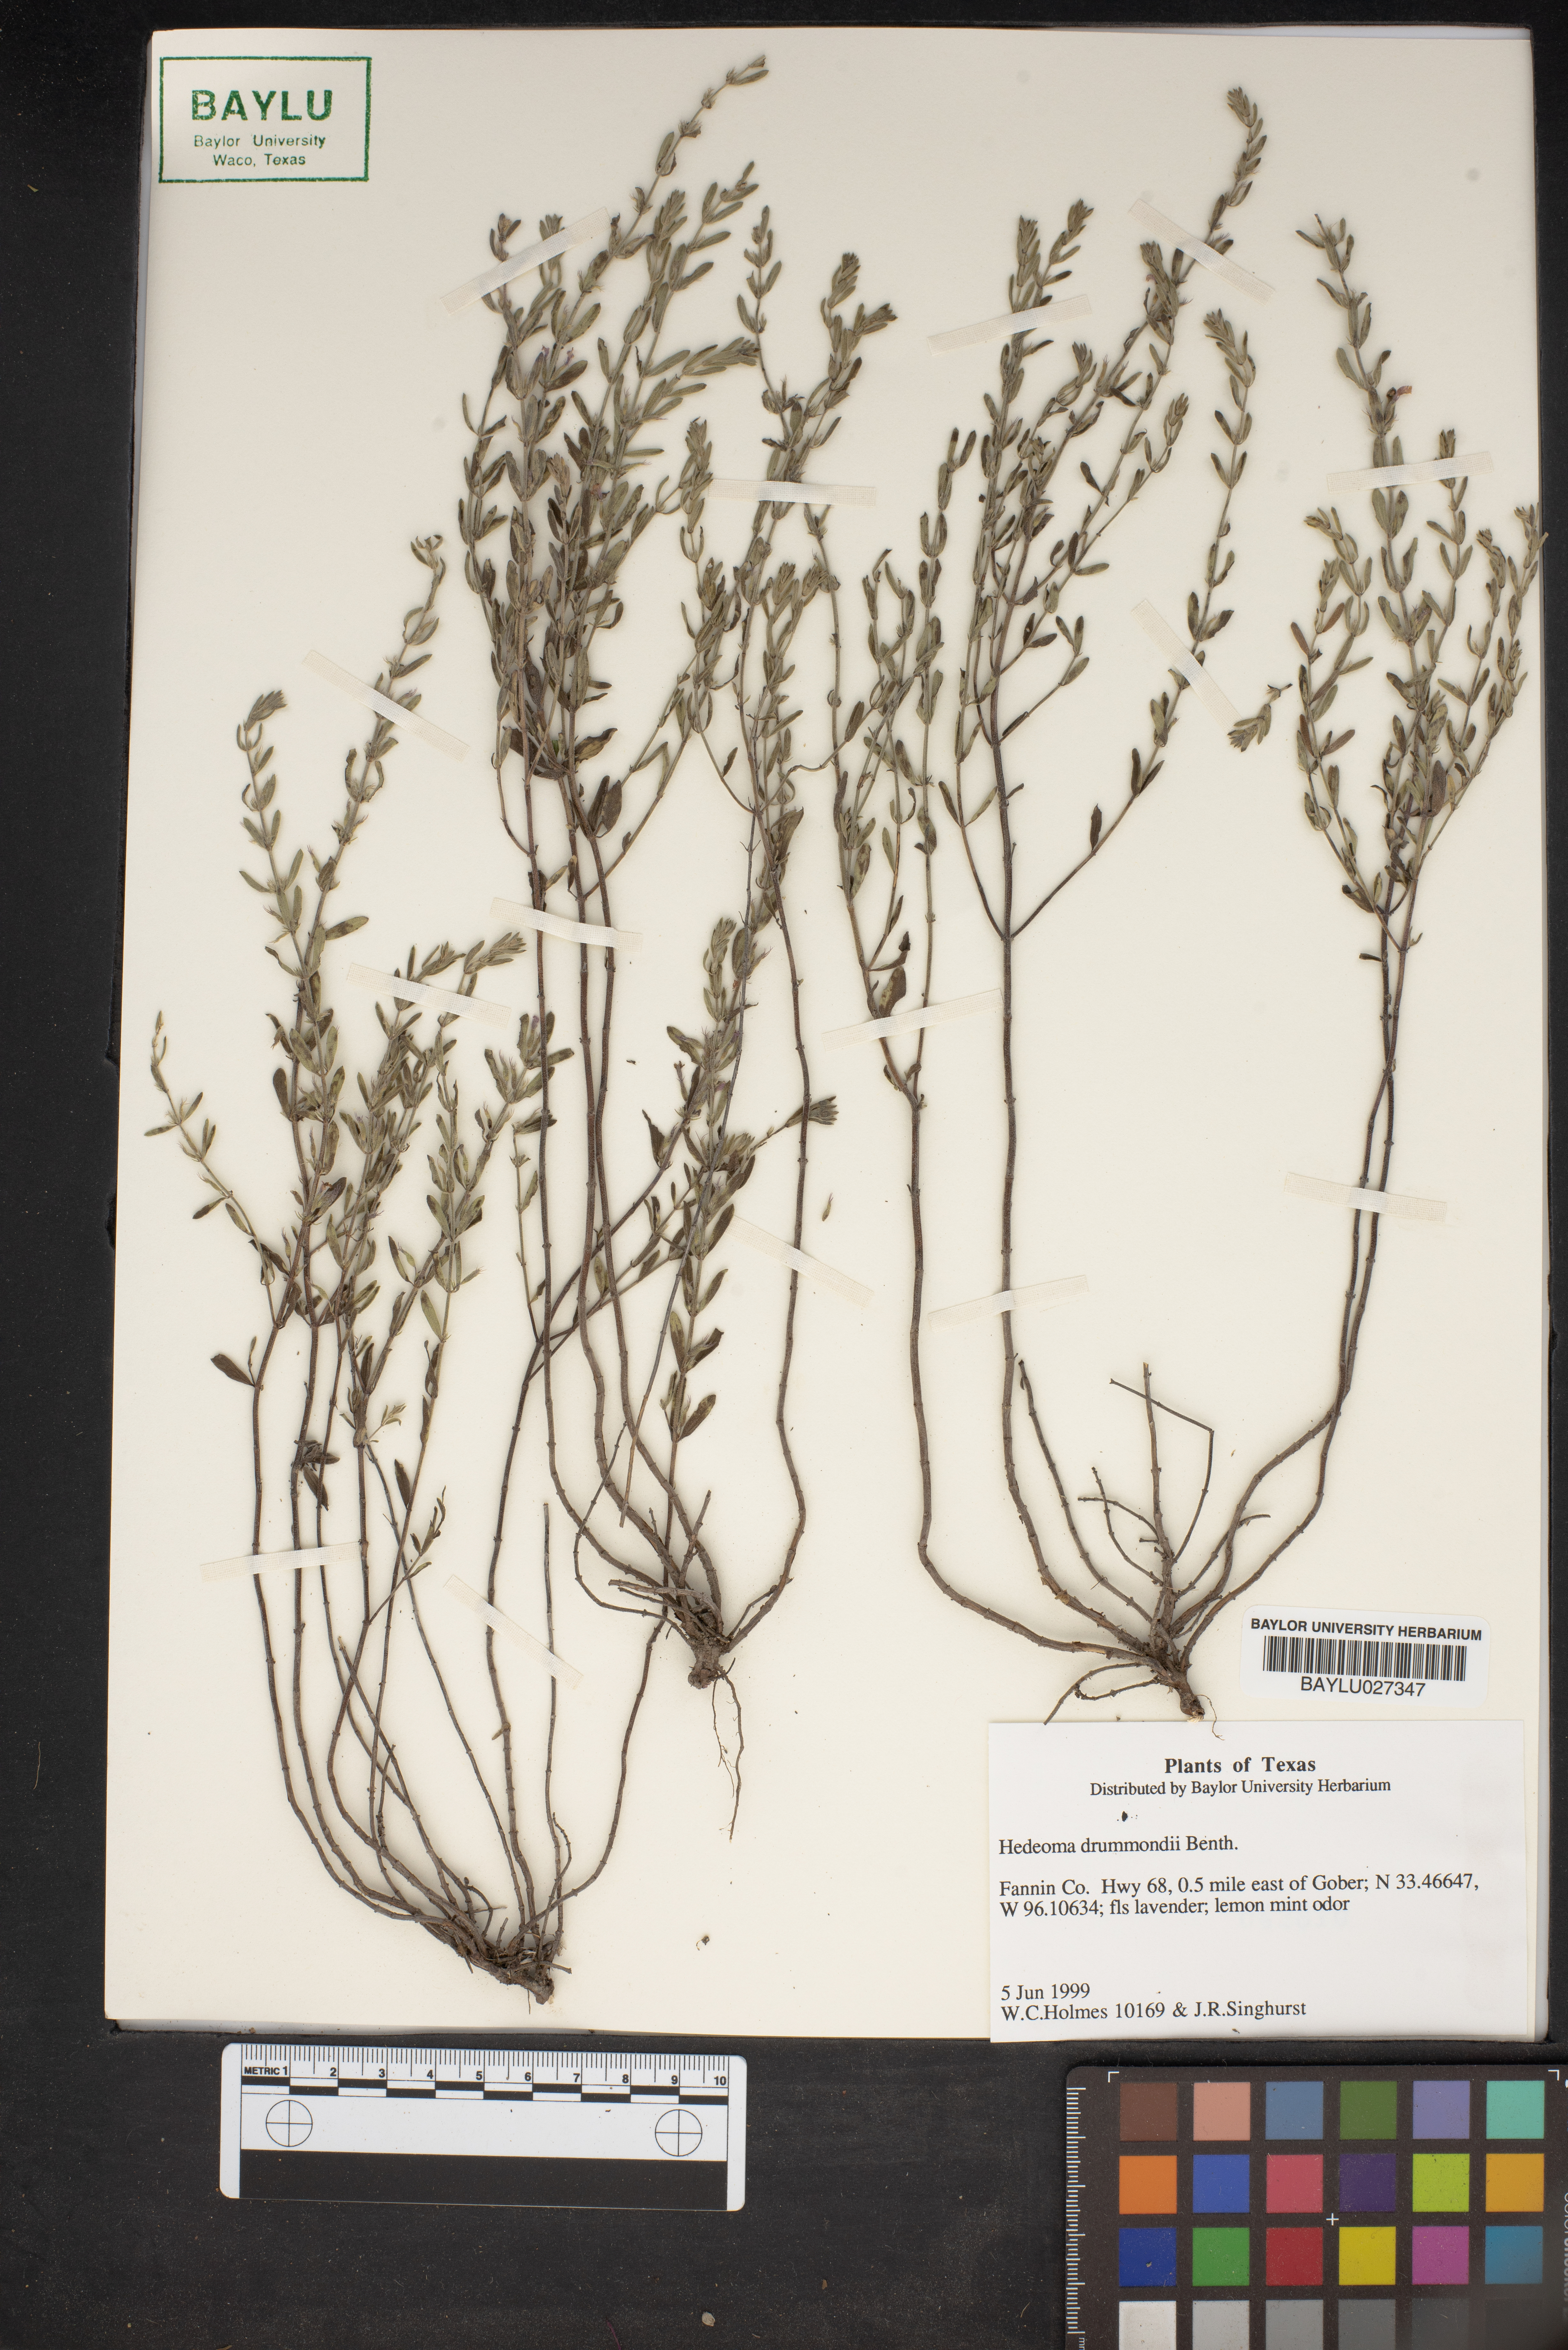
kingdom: Plantae
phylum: Tracheophyta
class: Magnoliopsida
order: Lamiales
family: Lamiaceae
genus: Hedeoma
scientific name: Hedeoma drummondii
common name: New mexico pennyroyal
